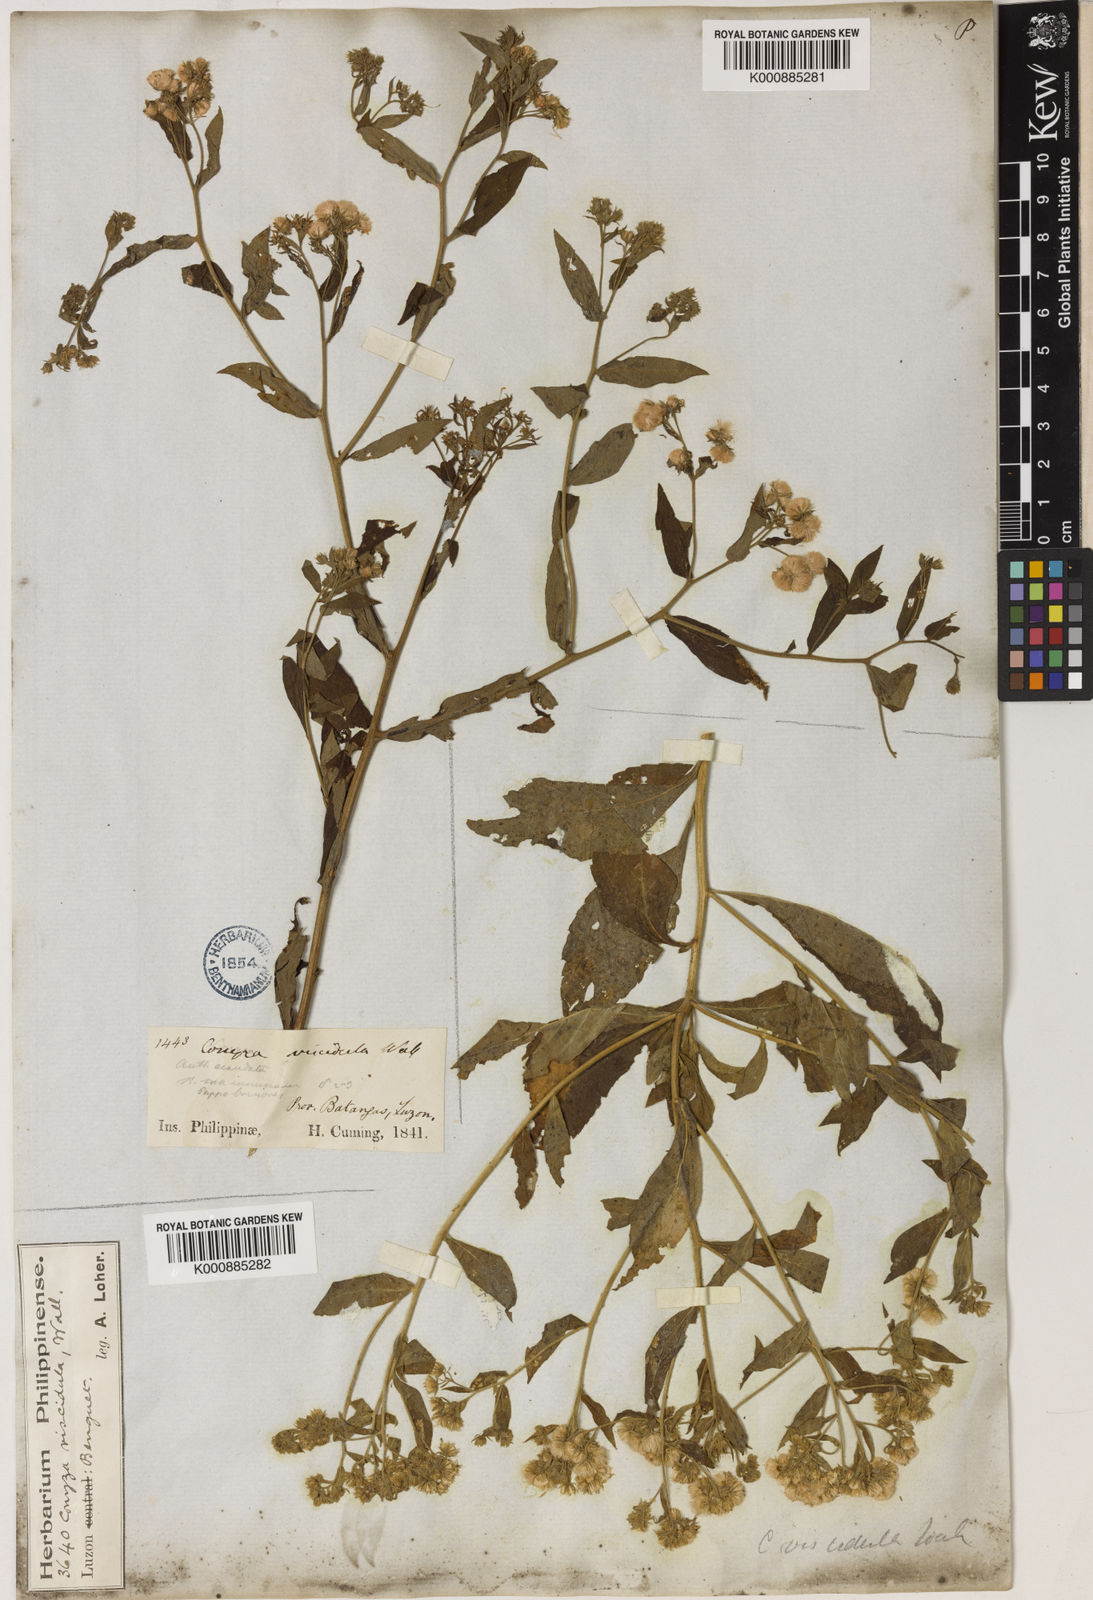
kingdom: Plantae
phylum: Tracheophyta
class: Magnoliopsida
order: Asterales
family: Asteraceae
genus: Eschenbachia
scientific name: Eschenbachia leucantha
